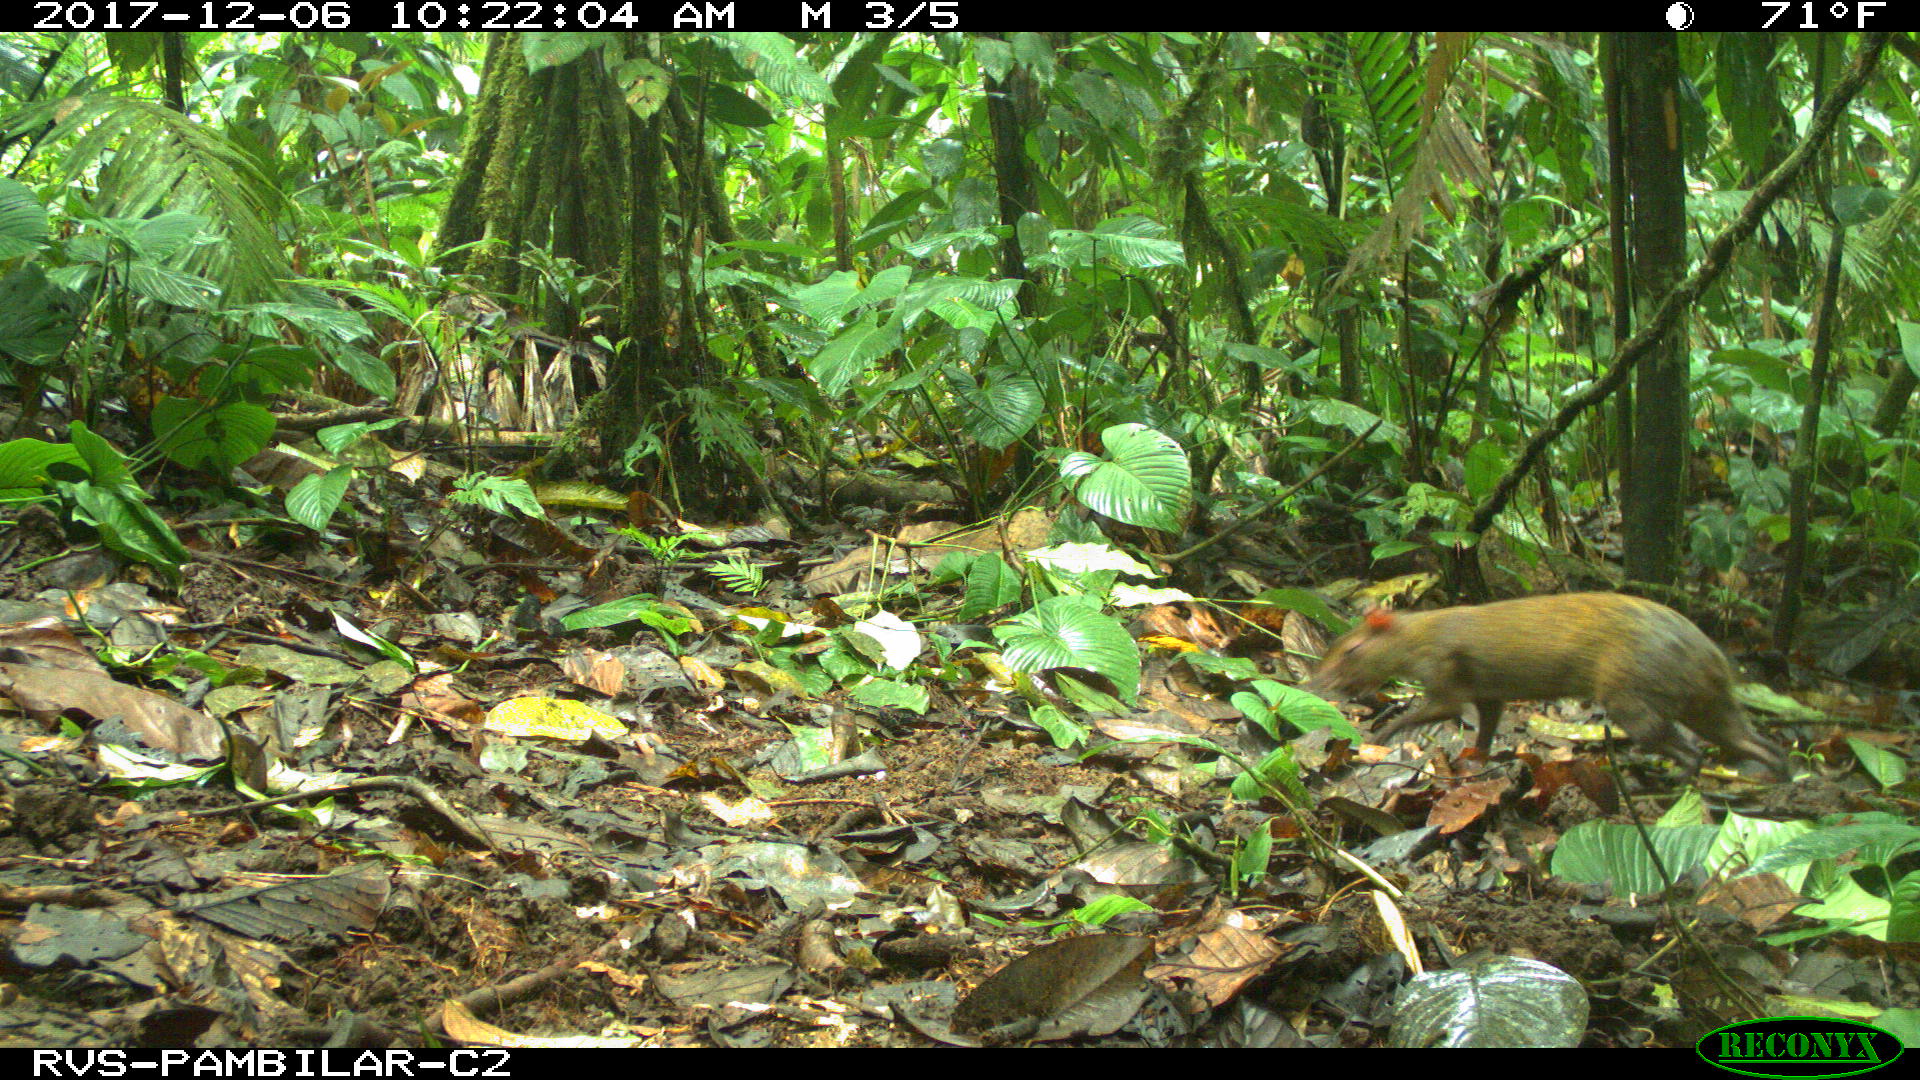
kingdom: Animalia
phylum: Chordata
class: Mammalia
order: Rodentia
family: Dasyproctidae
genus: Dasyprocta
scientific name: Dasyprocta punctata
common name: Central american agouti
